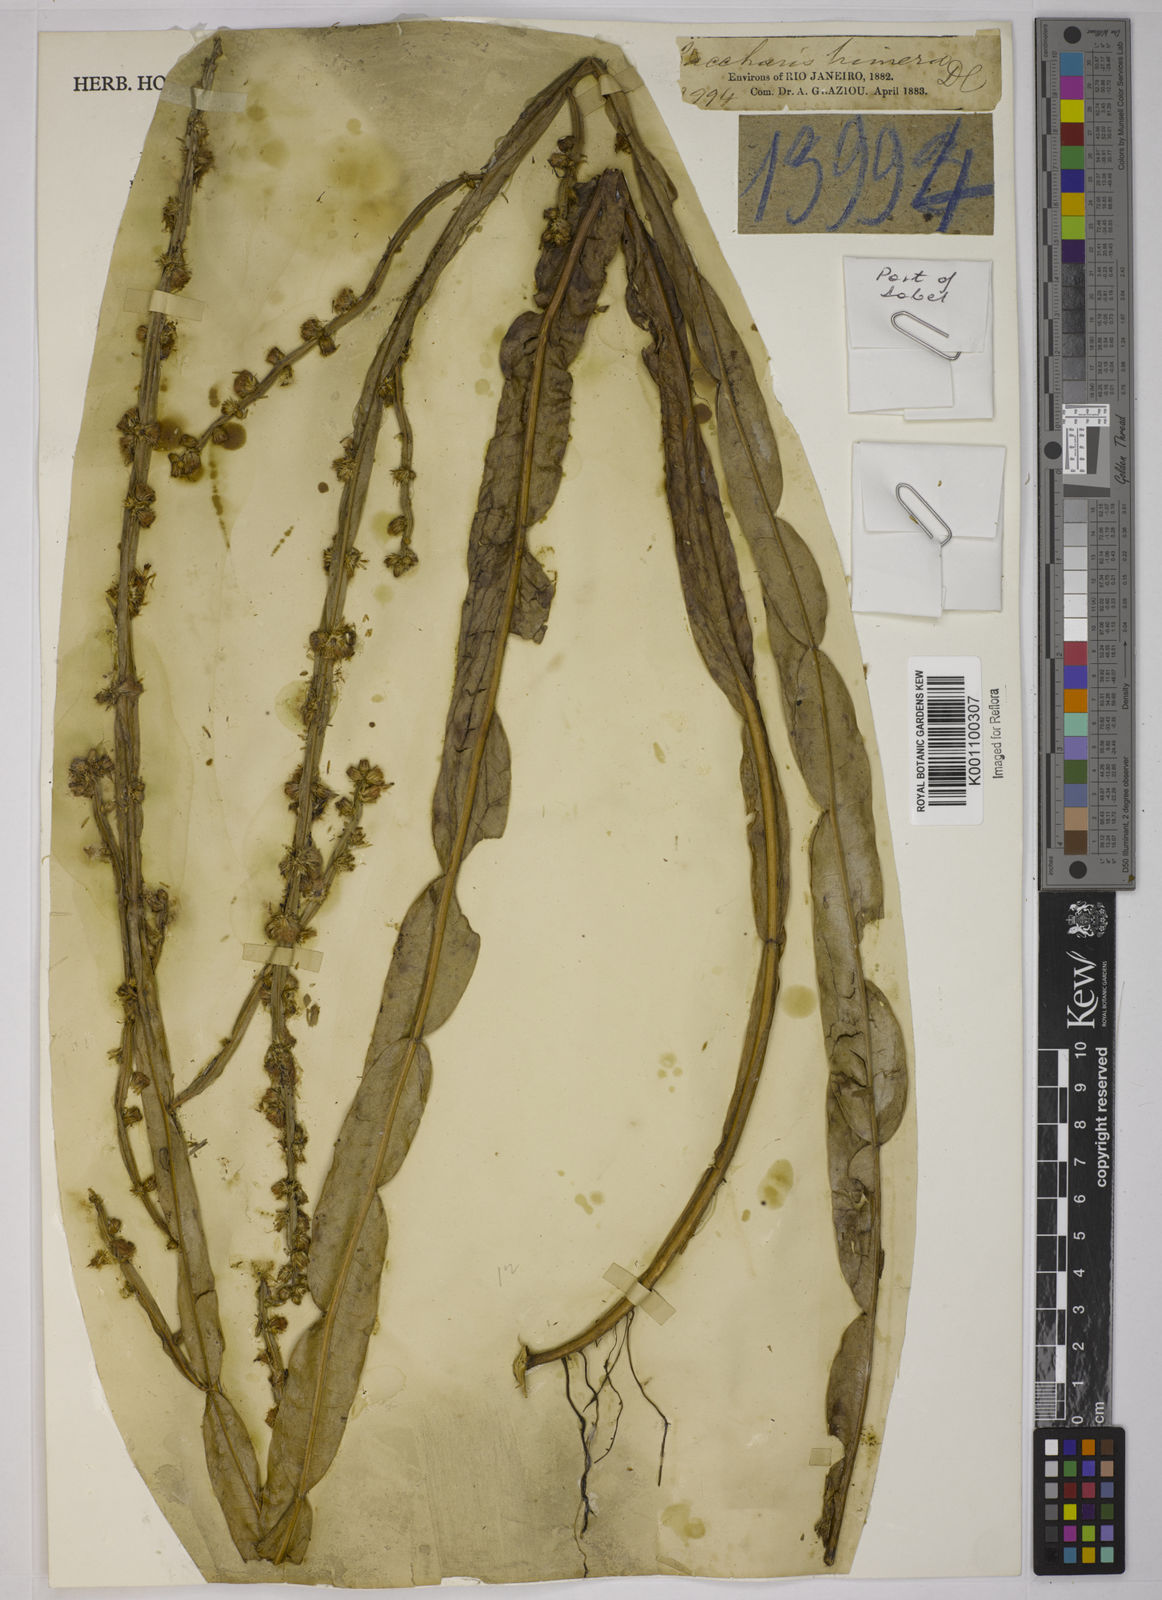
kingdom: Plantae
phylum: Tracheophyta
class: Magnoliopsida
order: Asterales
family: Asteraceae
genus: Baccharis
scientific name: Baccharis trimera
